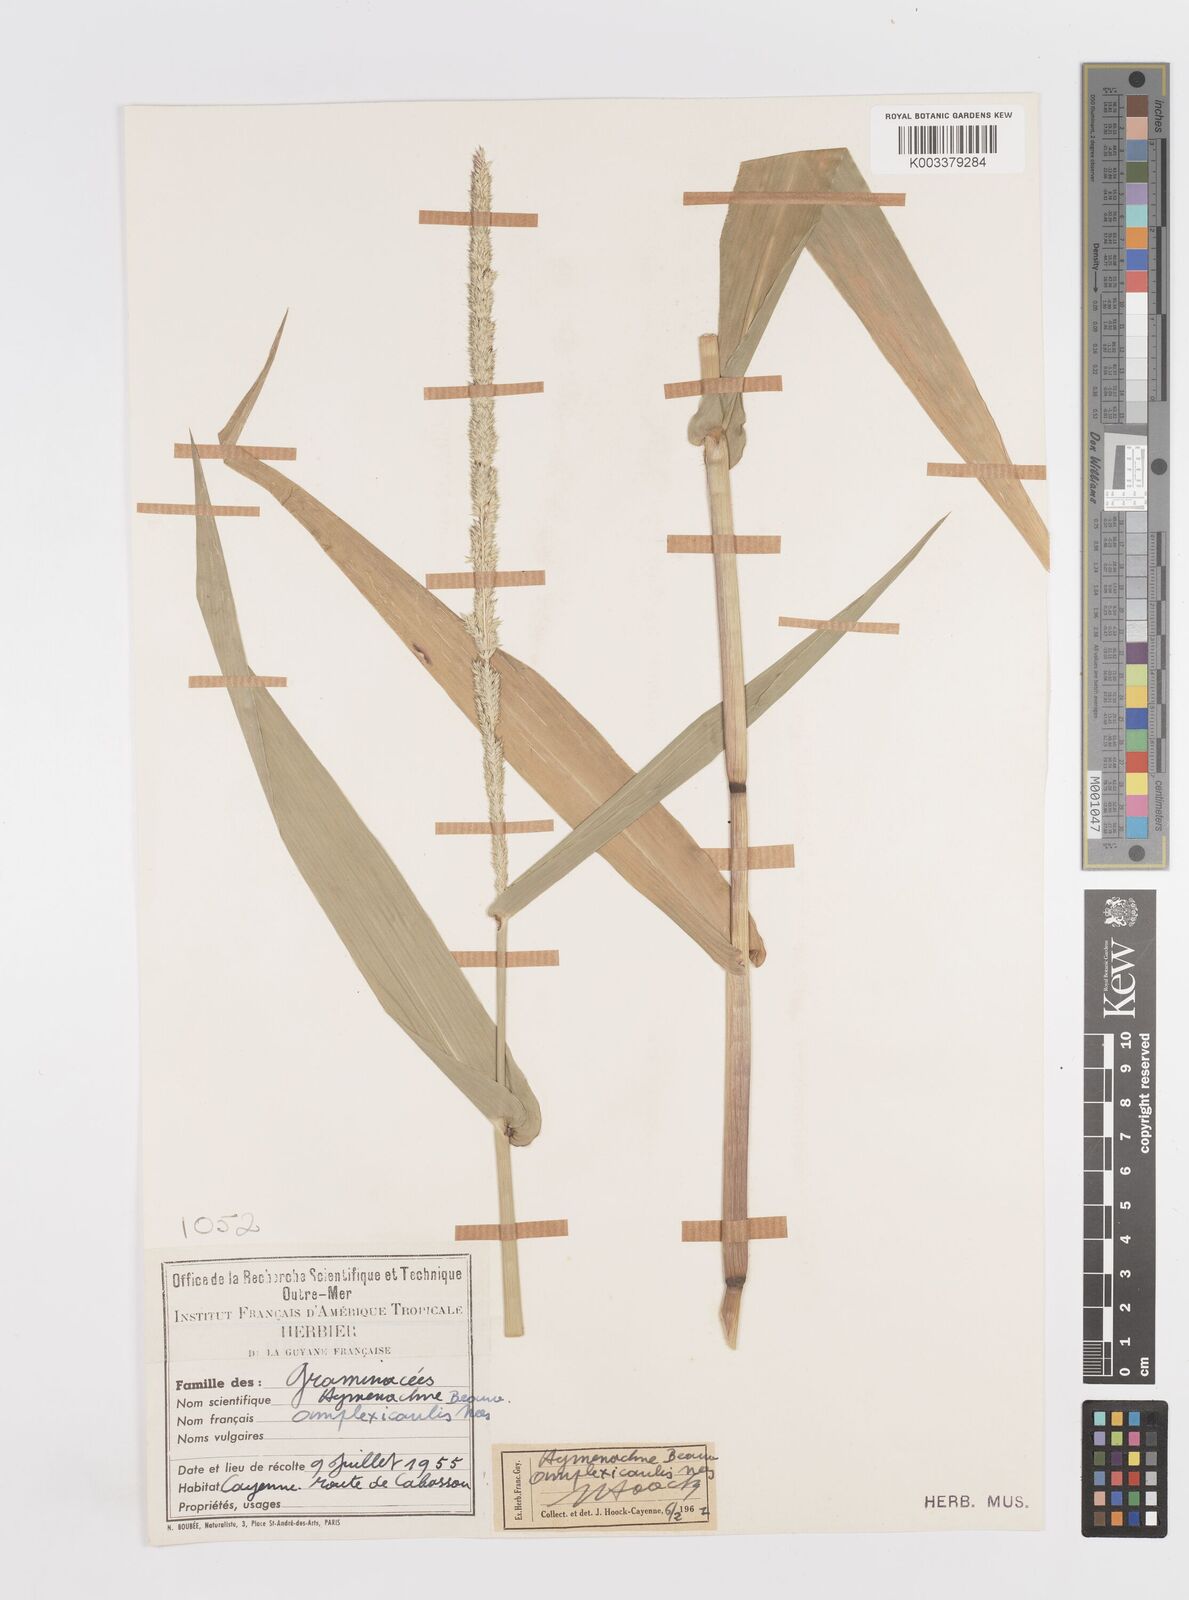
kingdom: Plantae
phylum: Tracheophyta
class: Liliopsida
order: Poales
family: Poaceae
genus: Hymenachne
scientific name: Hymenachne amplexicaulis
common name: Olive hymenachne
